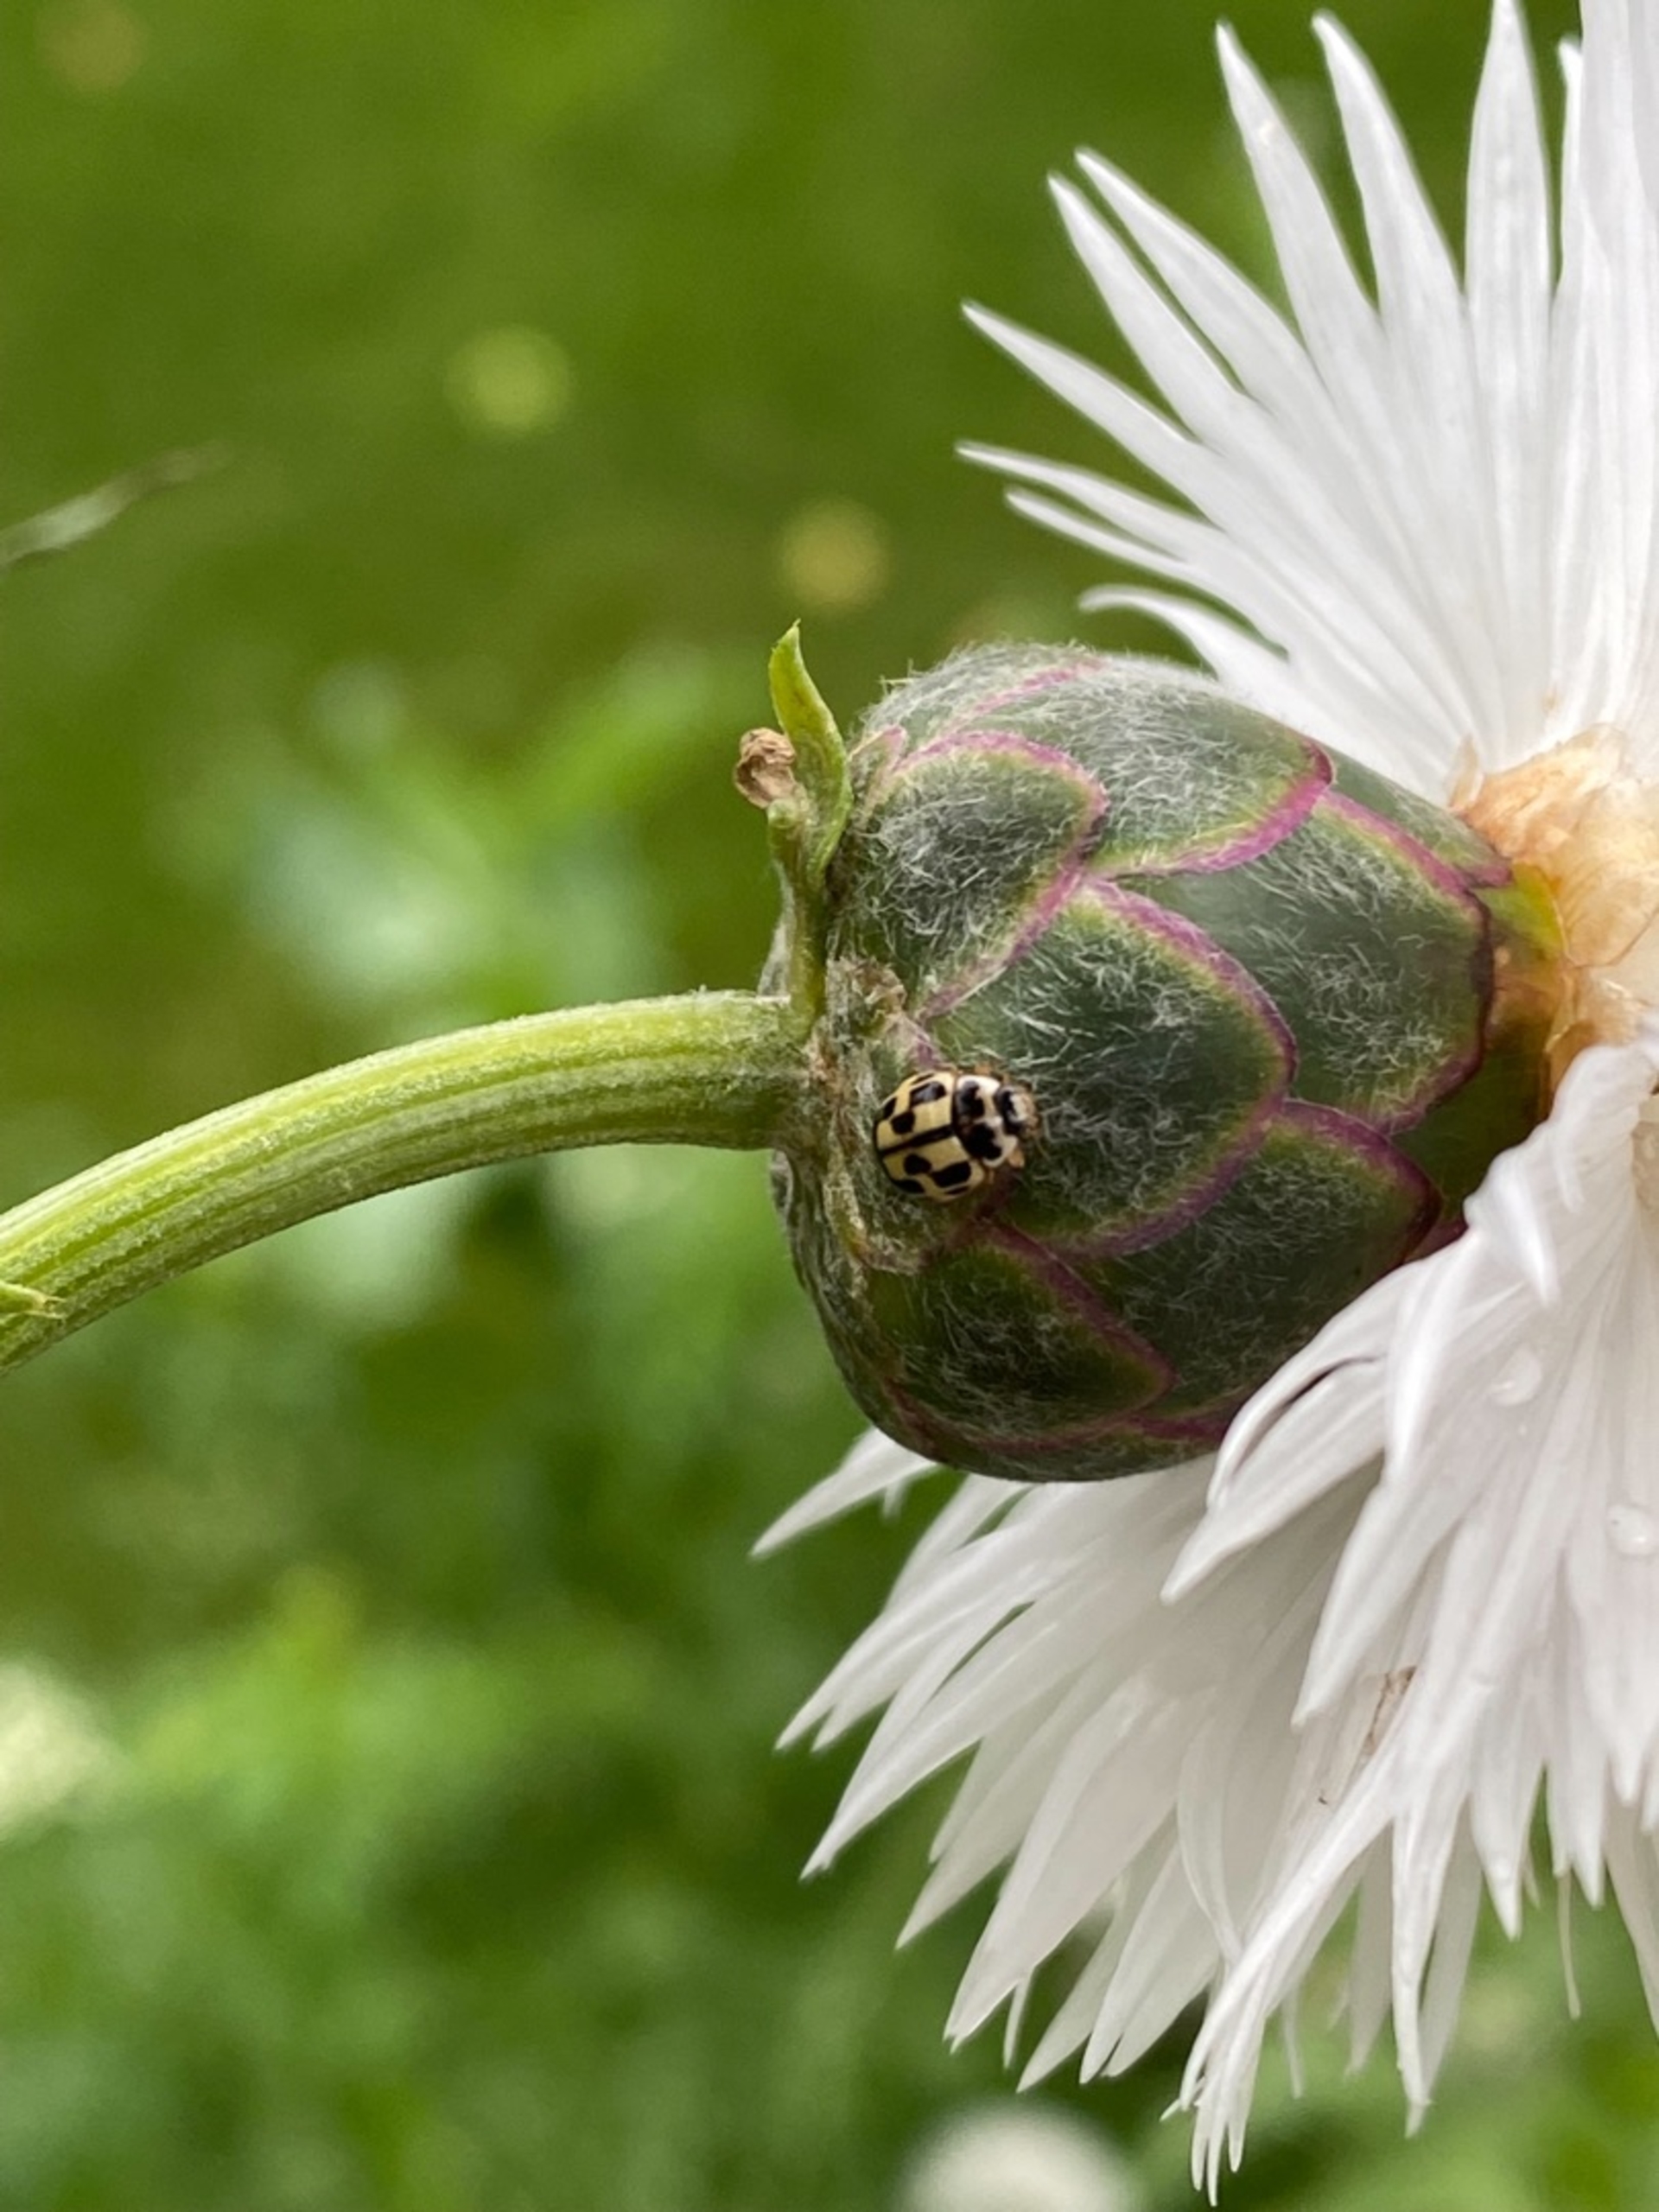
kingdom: Animalia
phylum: Arthropoda
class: Insecta
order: Coleoptera
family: Coccinellidae
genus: Propylaea
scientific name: Propylaea quatuordecimpunctata
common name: Skakbræt
